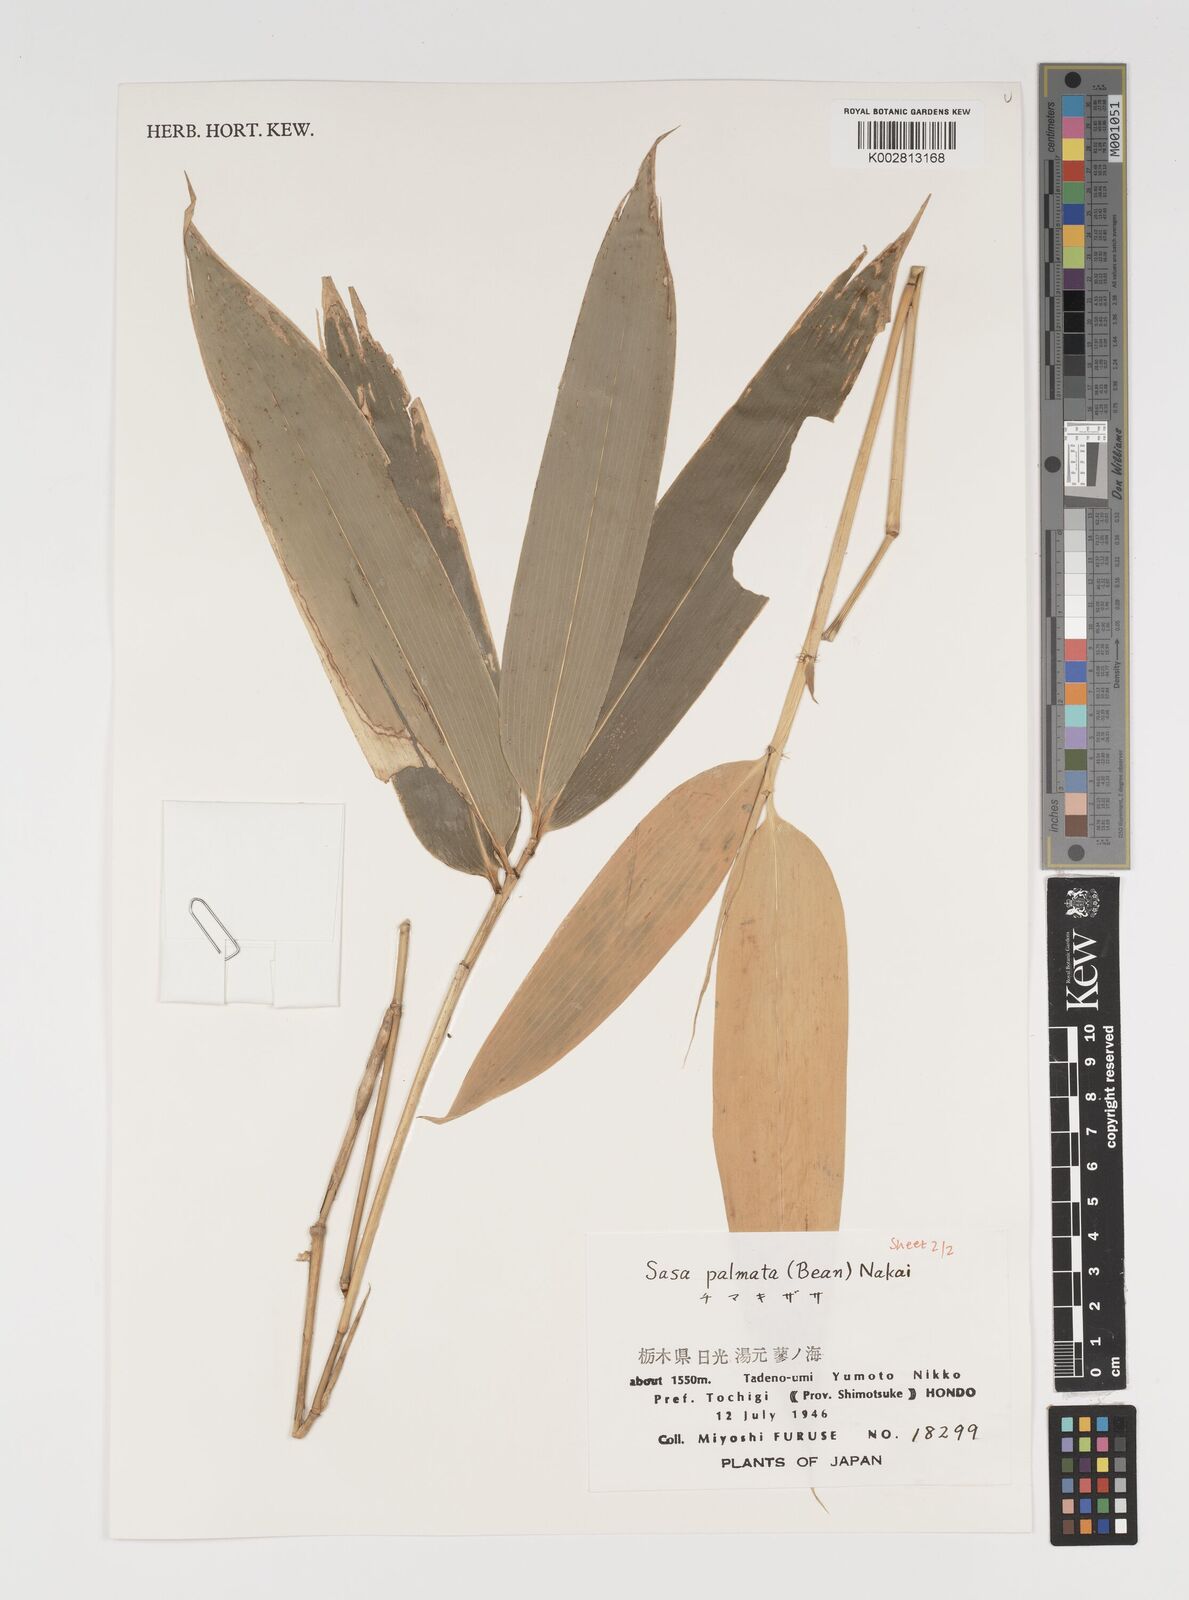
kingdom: Plantae
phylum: Tracheophyta
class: Liliopsida
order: Poales
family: Poaceae
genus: Sasa
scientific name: Sasa palmata
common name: Broad-leaved bamboo
